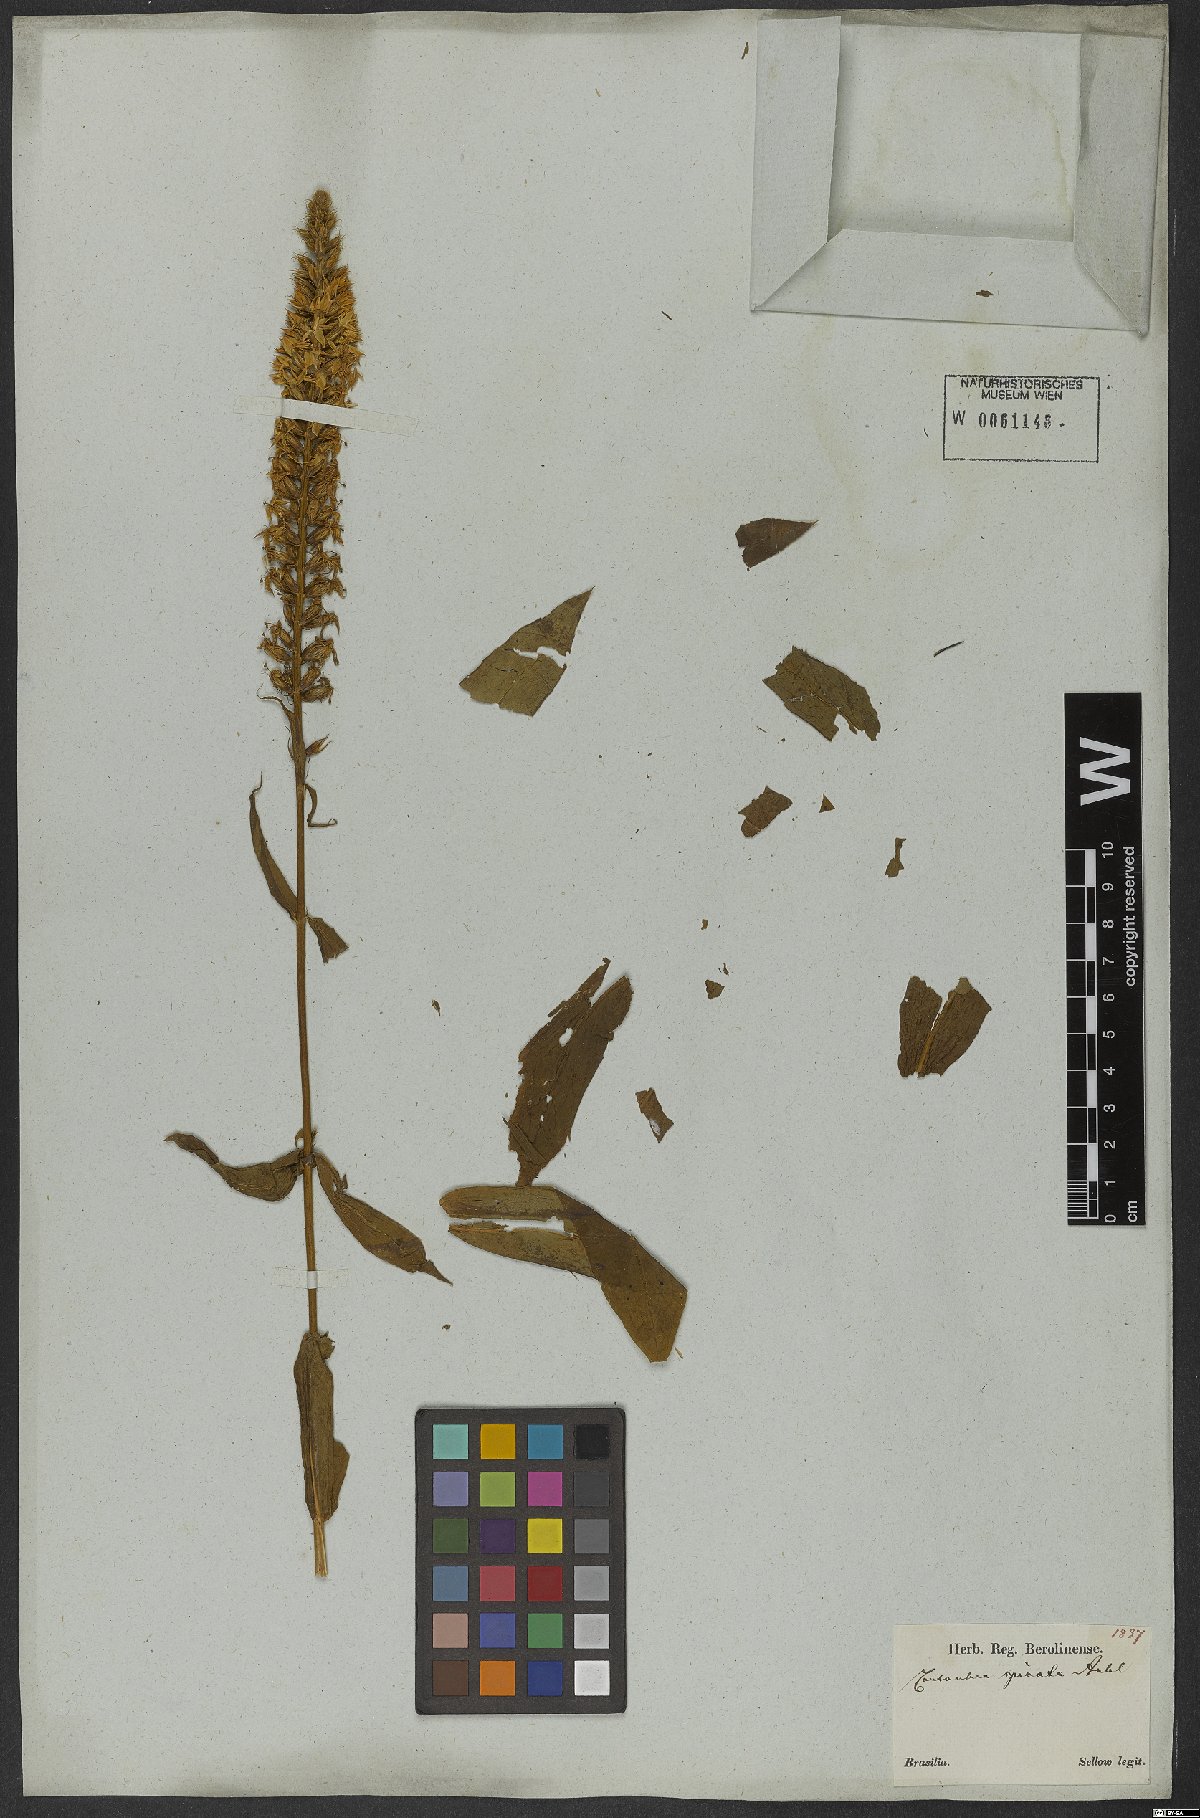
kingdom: Plantae
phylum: Tracheophyta
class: Magnoliopsida
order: Gentianales
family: Gentianaceae
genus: Coutoubea
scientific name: Coutoubea spicata
